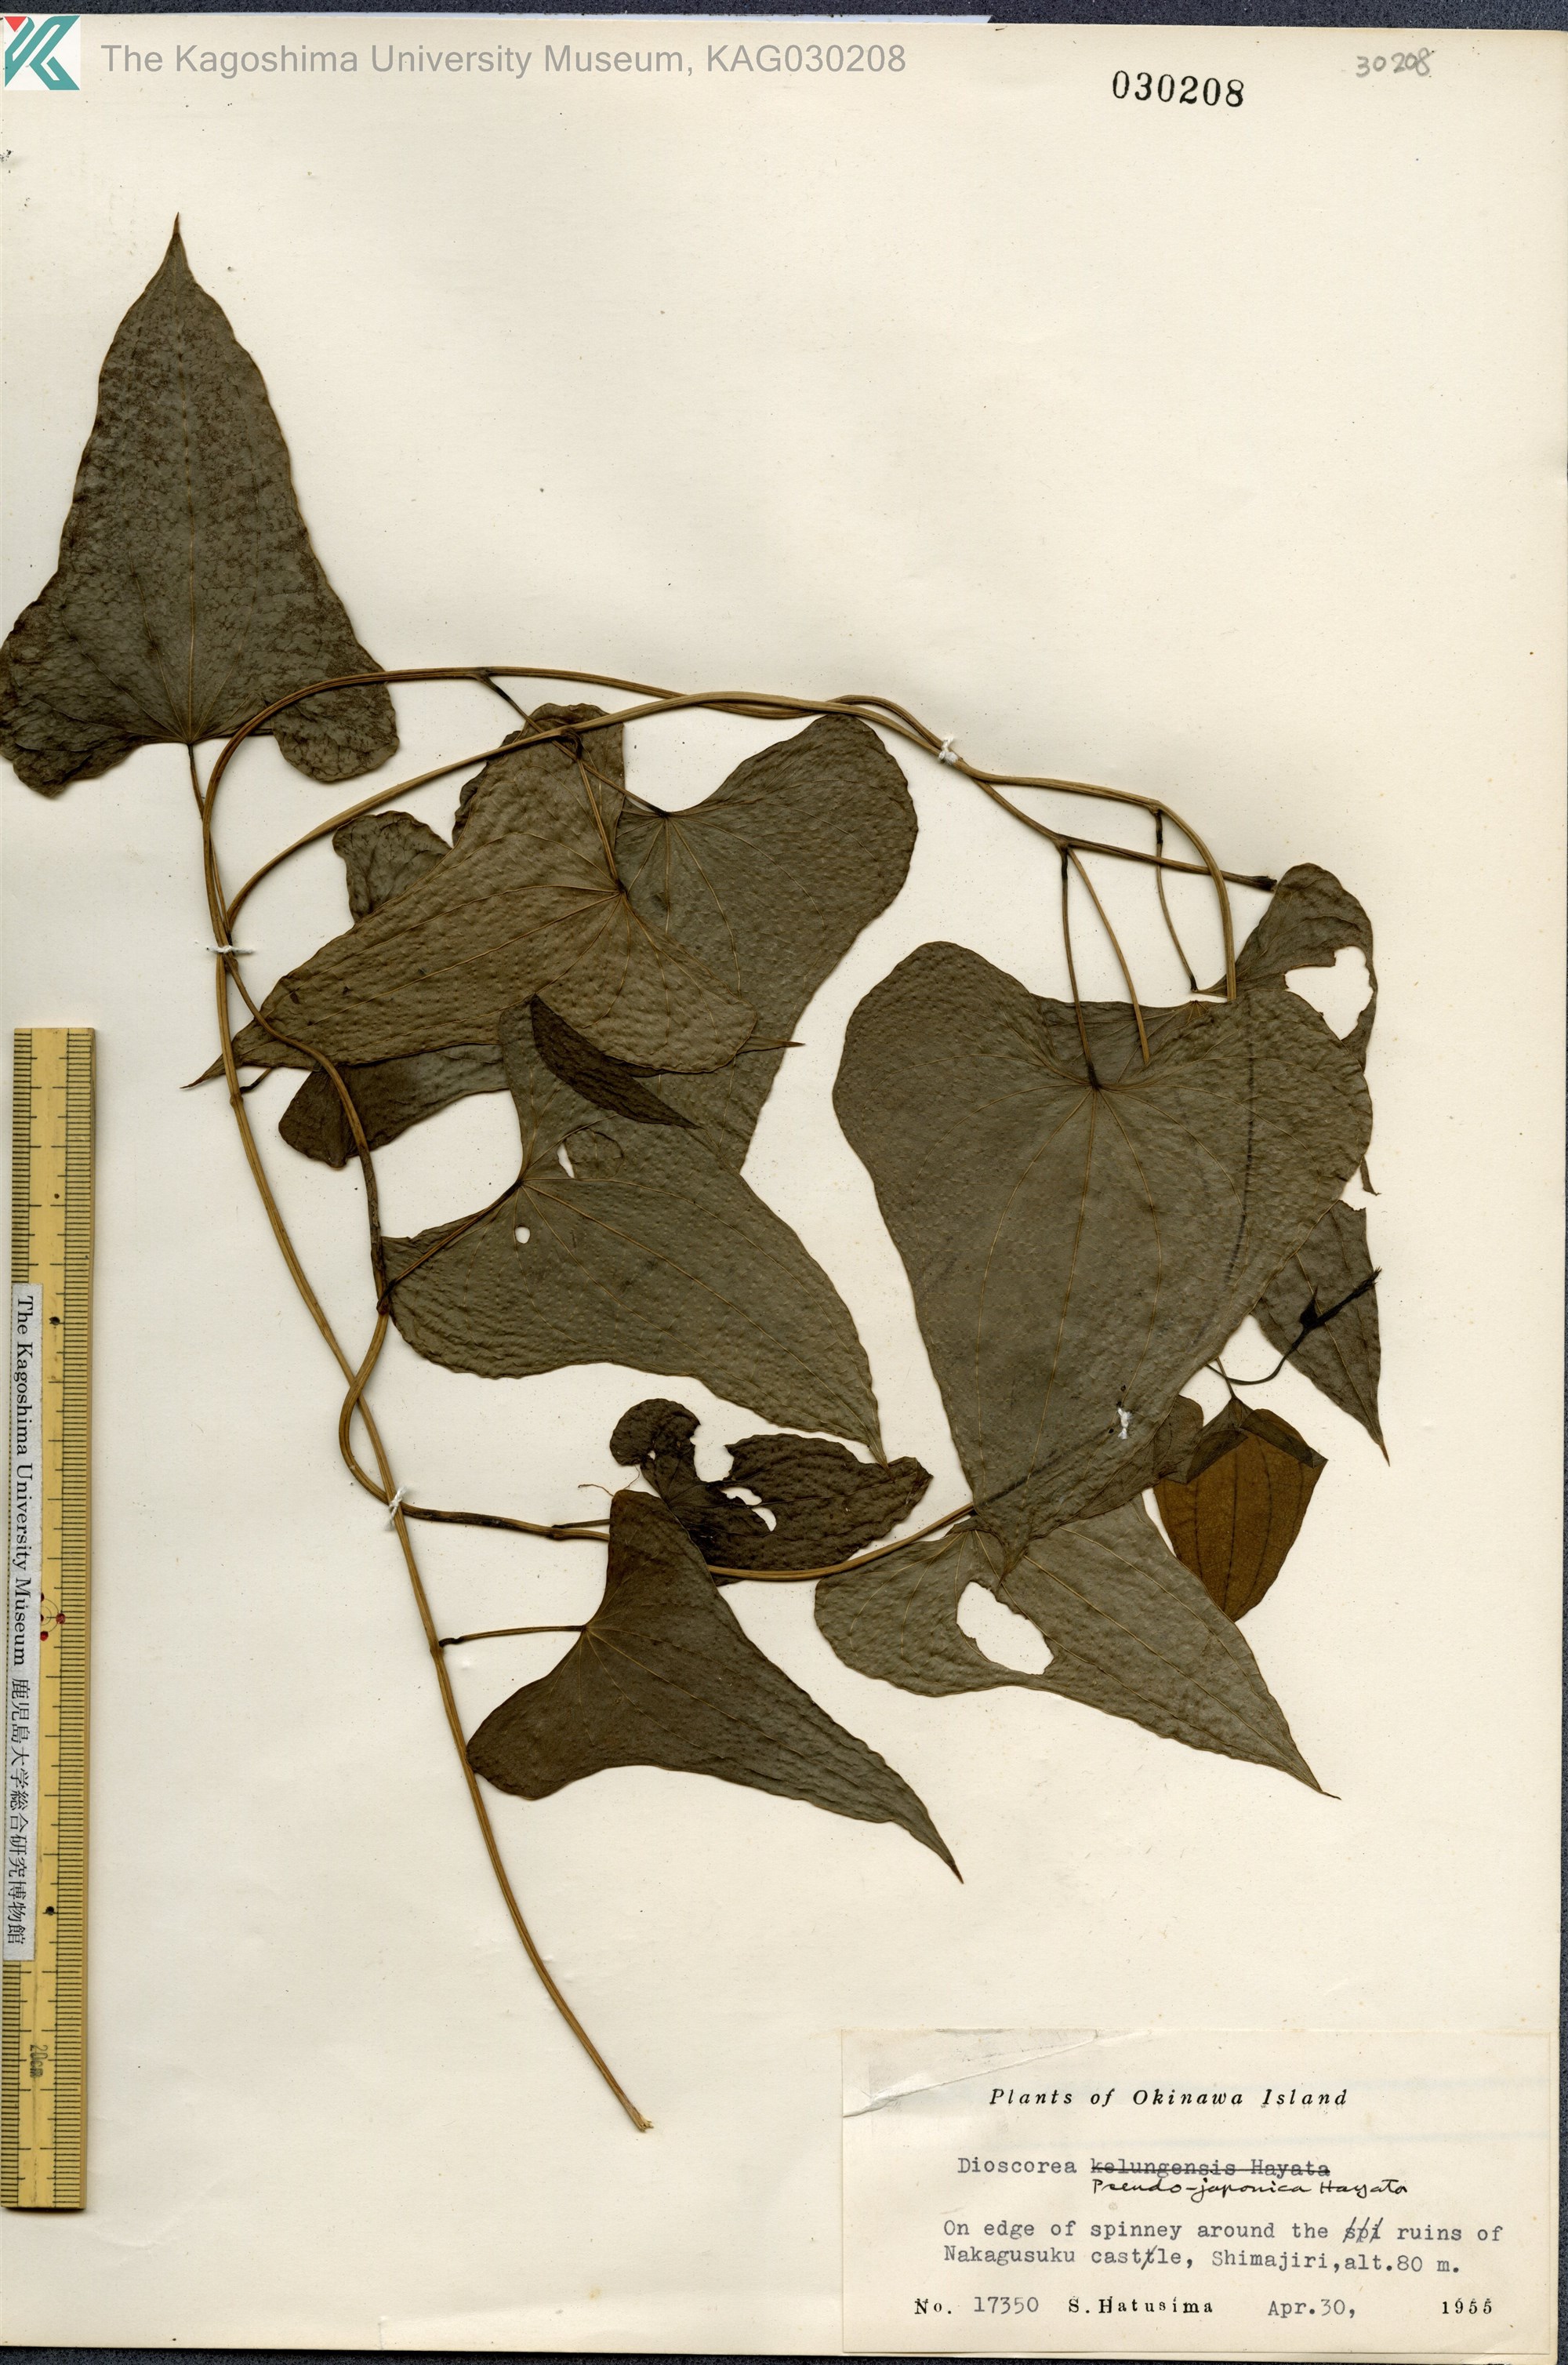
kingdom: Plantae
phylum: Tracheophyta
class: Liliopsida
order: Dioscoreales
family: Dioscoreaceae
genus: Dioscorea
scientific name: Dioscorea japonica
